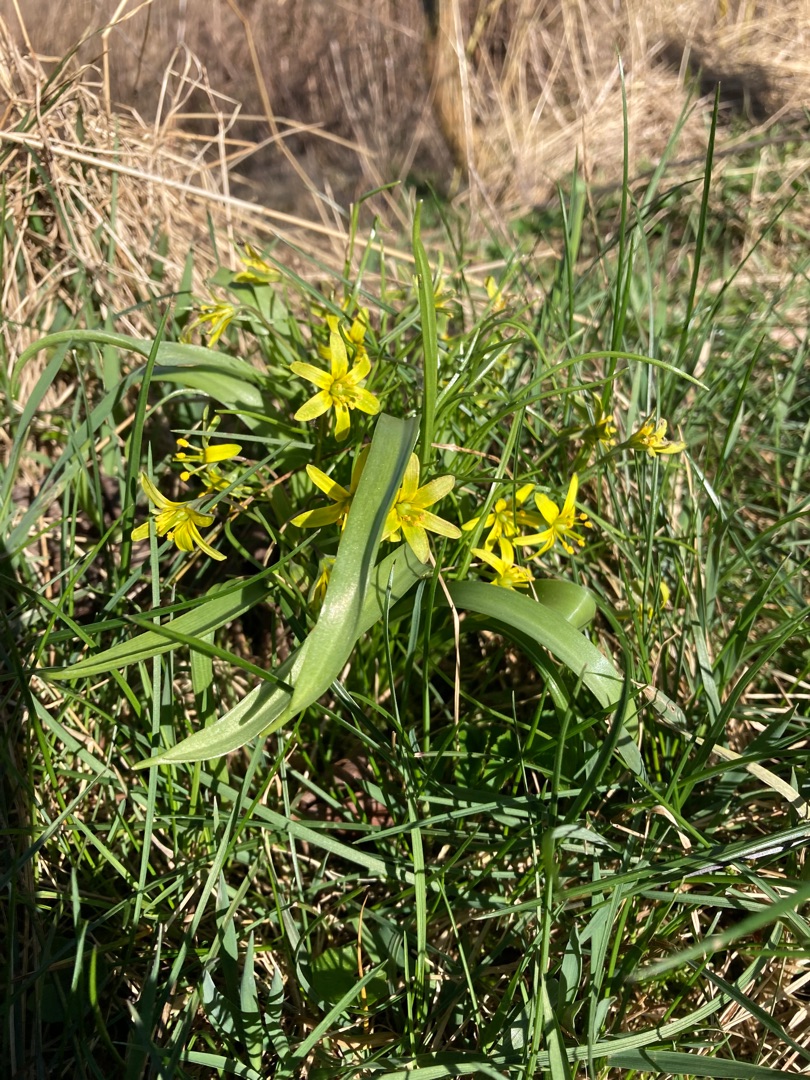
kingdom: Plantae
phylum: Tracheophyta
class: Liliopsida
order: Liliales
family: Liliaceae
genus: Gagea
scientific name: Gagea lutea
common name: Almindelig guldstjerne
